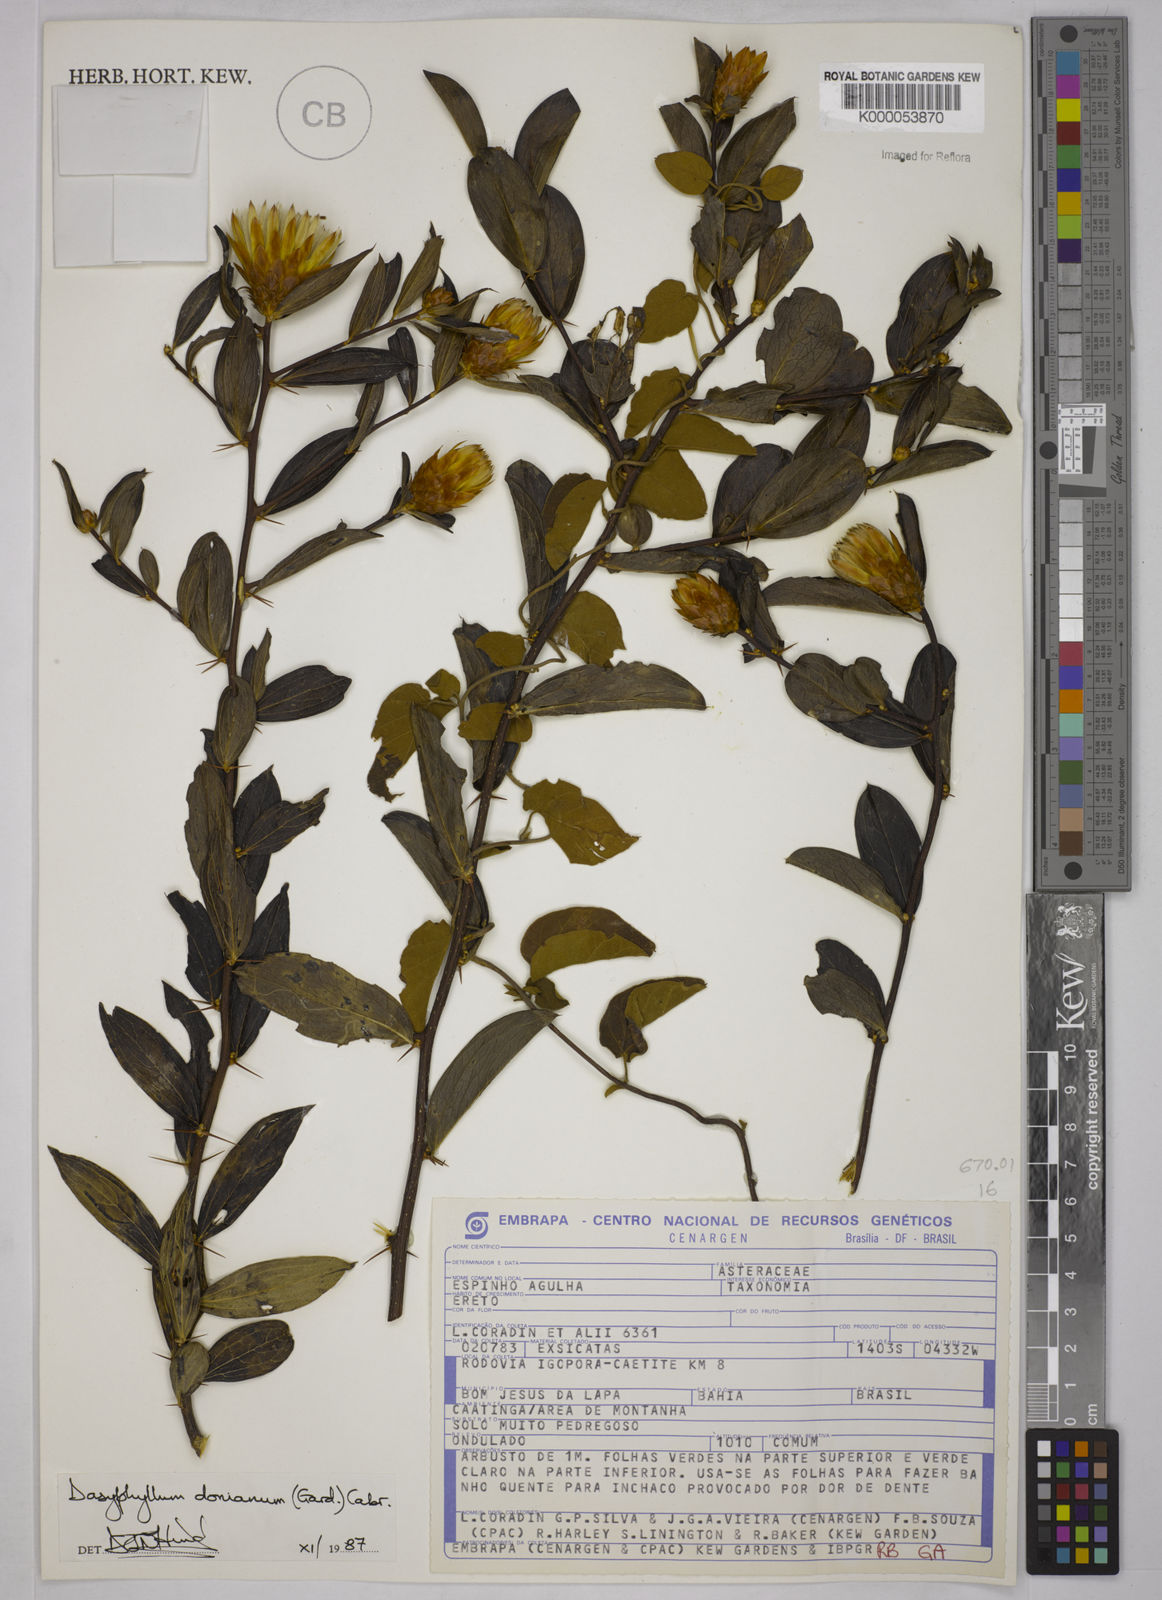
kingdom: Plantae
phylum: Tracheophyta
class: Magnoliopsida
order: Asterales
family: Asteraceae
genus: Dasyphyllum
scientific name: Dasyphyllum donianum
